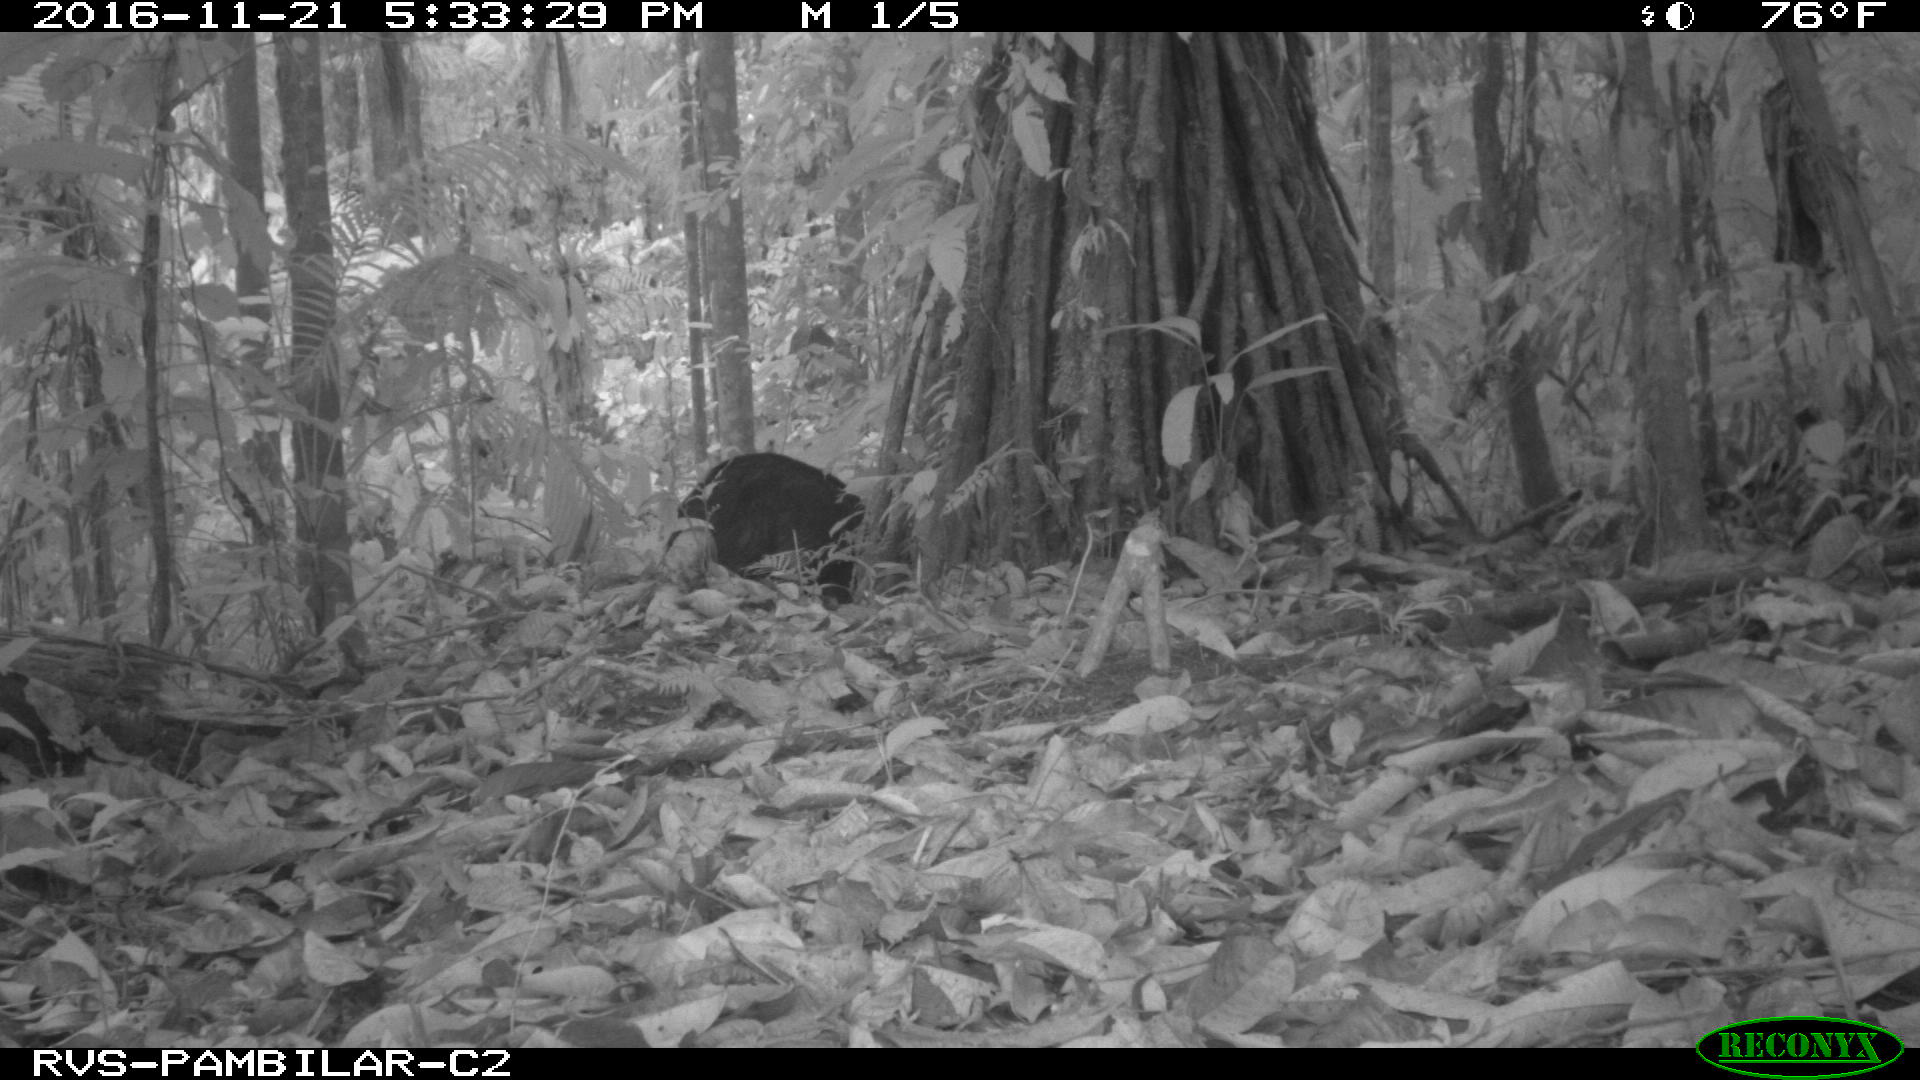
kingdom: Animalia
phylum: Chordata
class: Mammalia
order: Artiodactyla
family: Tayassuidae
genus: Tayassu
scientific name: Tayassu pecari
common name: White-lipped peccary
